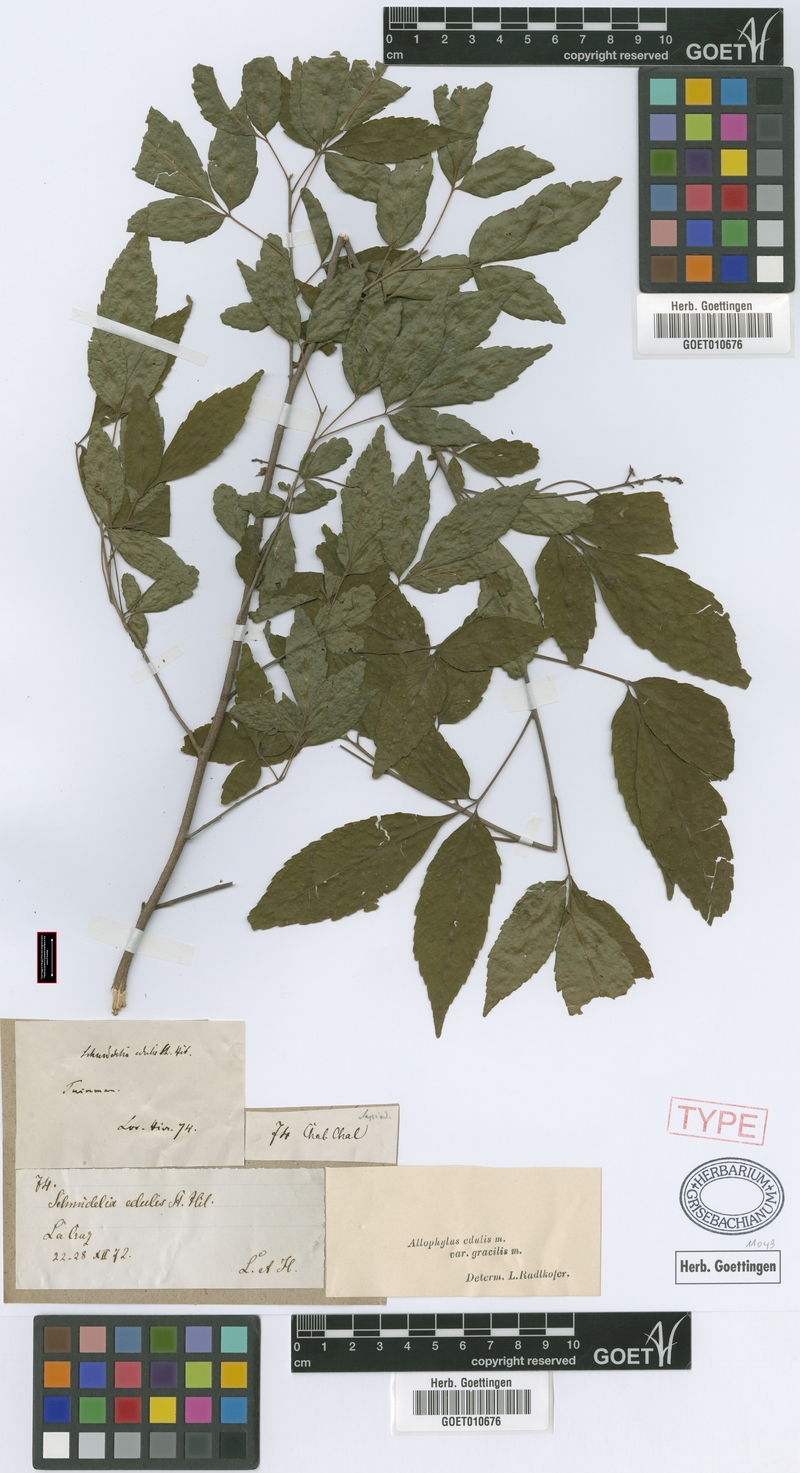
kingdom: Plantae
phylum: Tracheophyta
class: Magnoliopsida
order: Sapindales
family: Sapindaceae
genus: Allophylus
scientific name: Allophylus edulis
